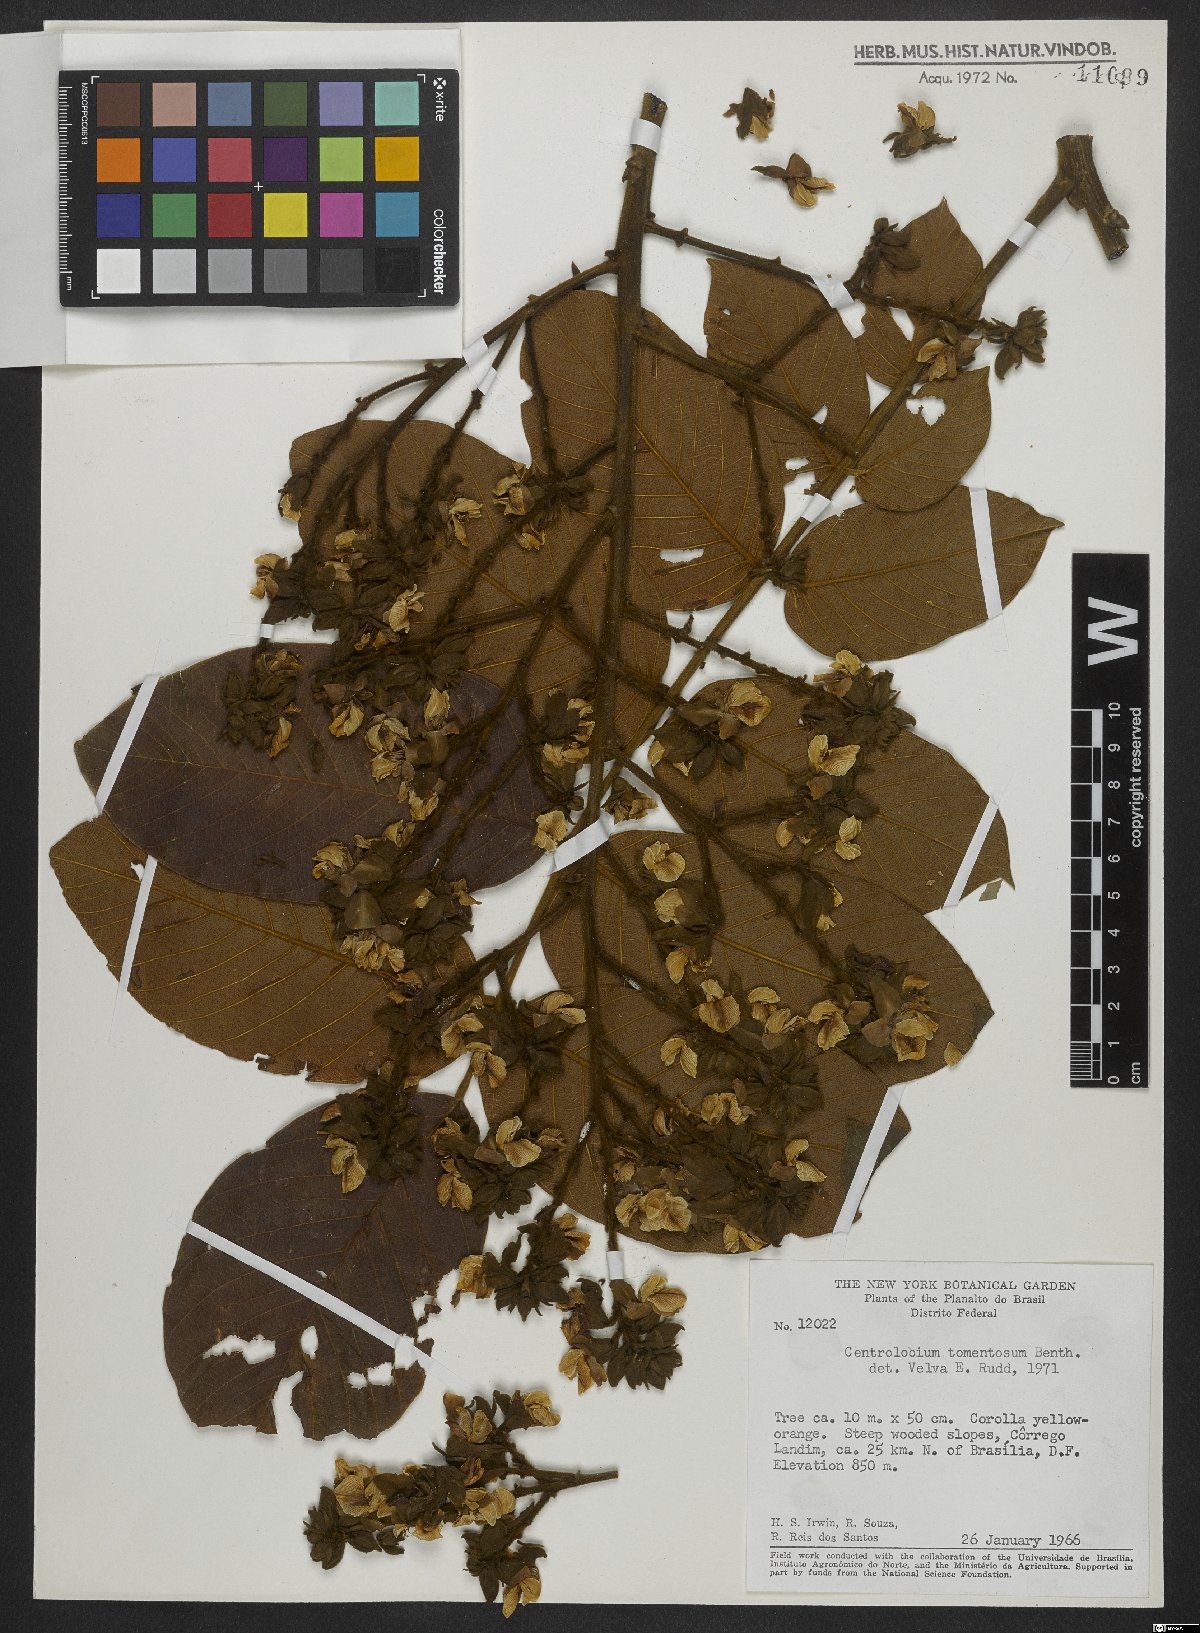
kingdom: Plantae
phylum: Tracheophyta
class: Magnoliopsida
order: Fabales
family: Fabaceae
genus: Centrolobium
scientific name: Centrolobium tomentosum
